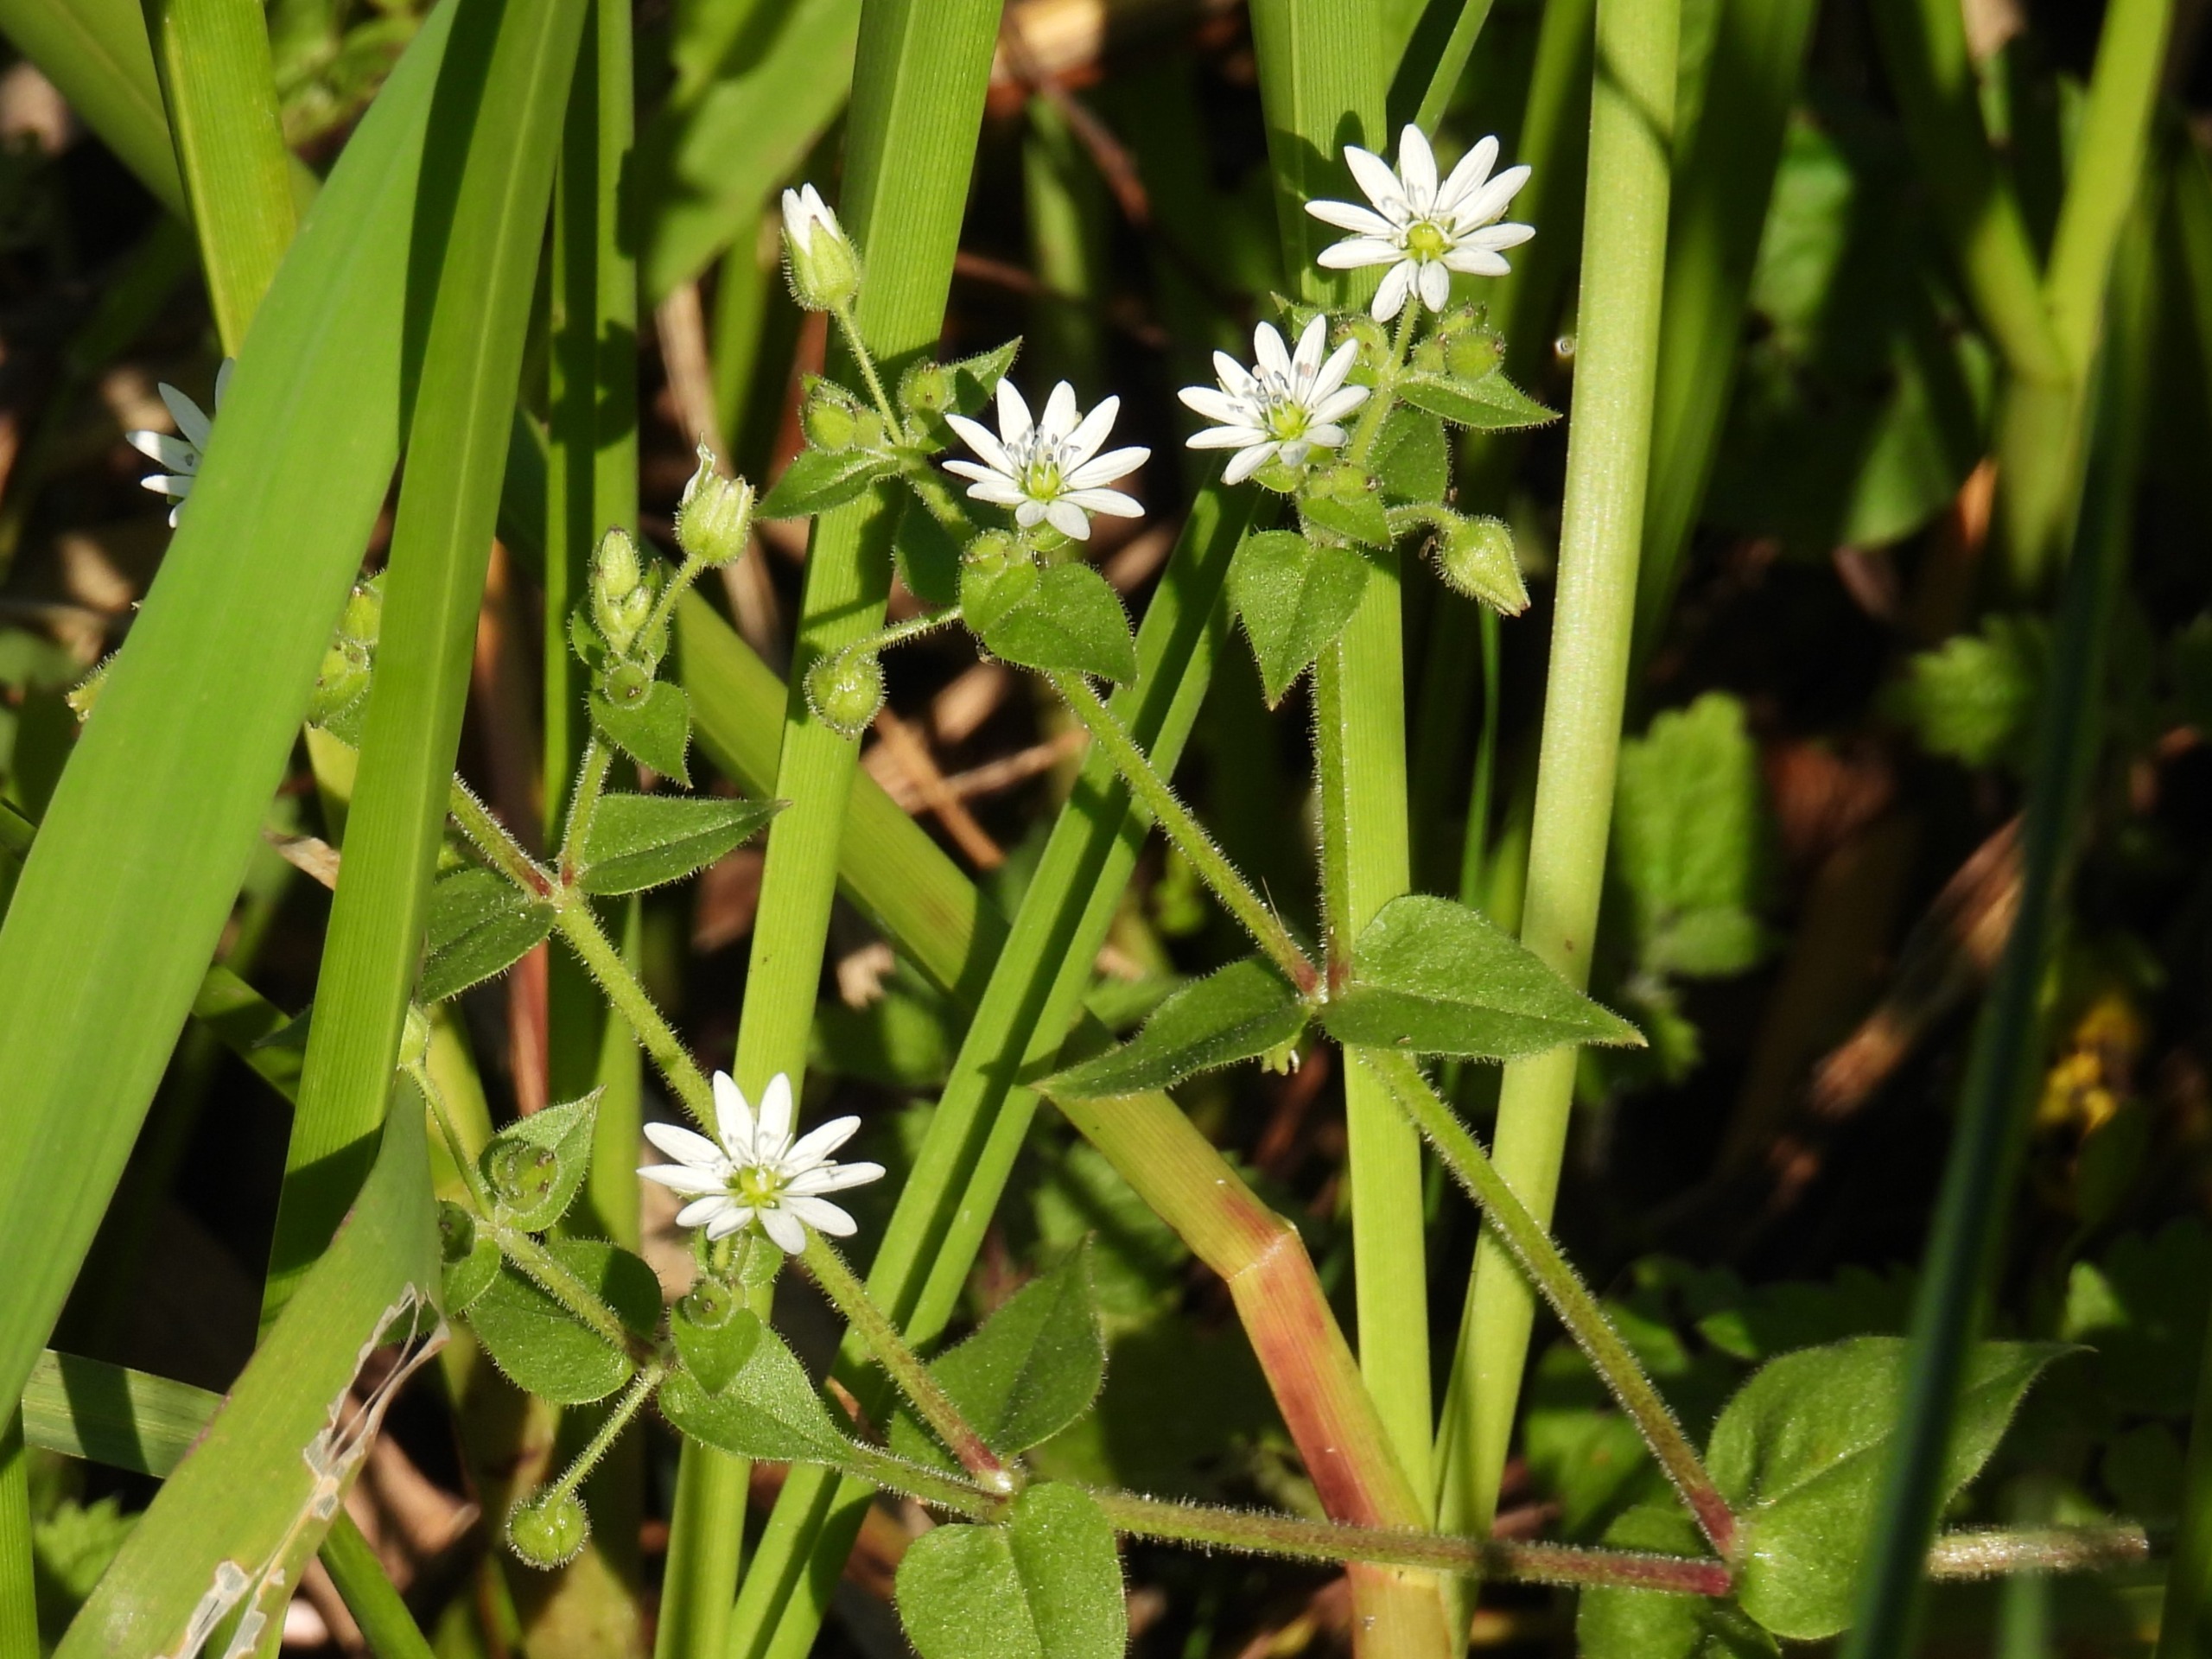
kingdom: Plantae
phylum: Tracheophyta
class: Magnoliopsida
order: Caryophyllales
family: Caryophyllaceae
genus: Stellaria
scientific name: Stellaria aquatica
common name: Kløvkrone
